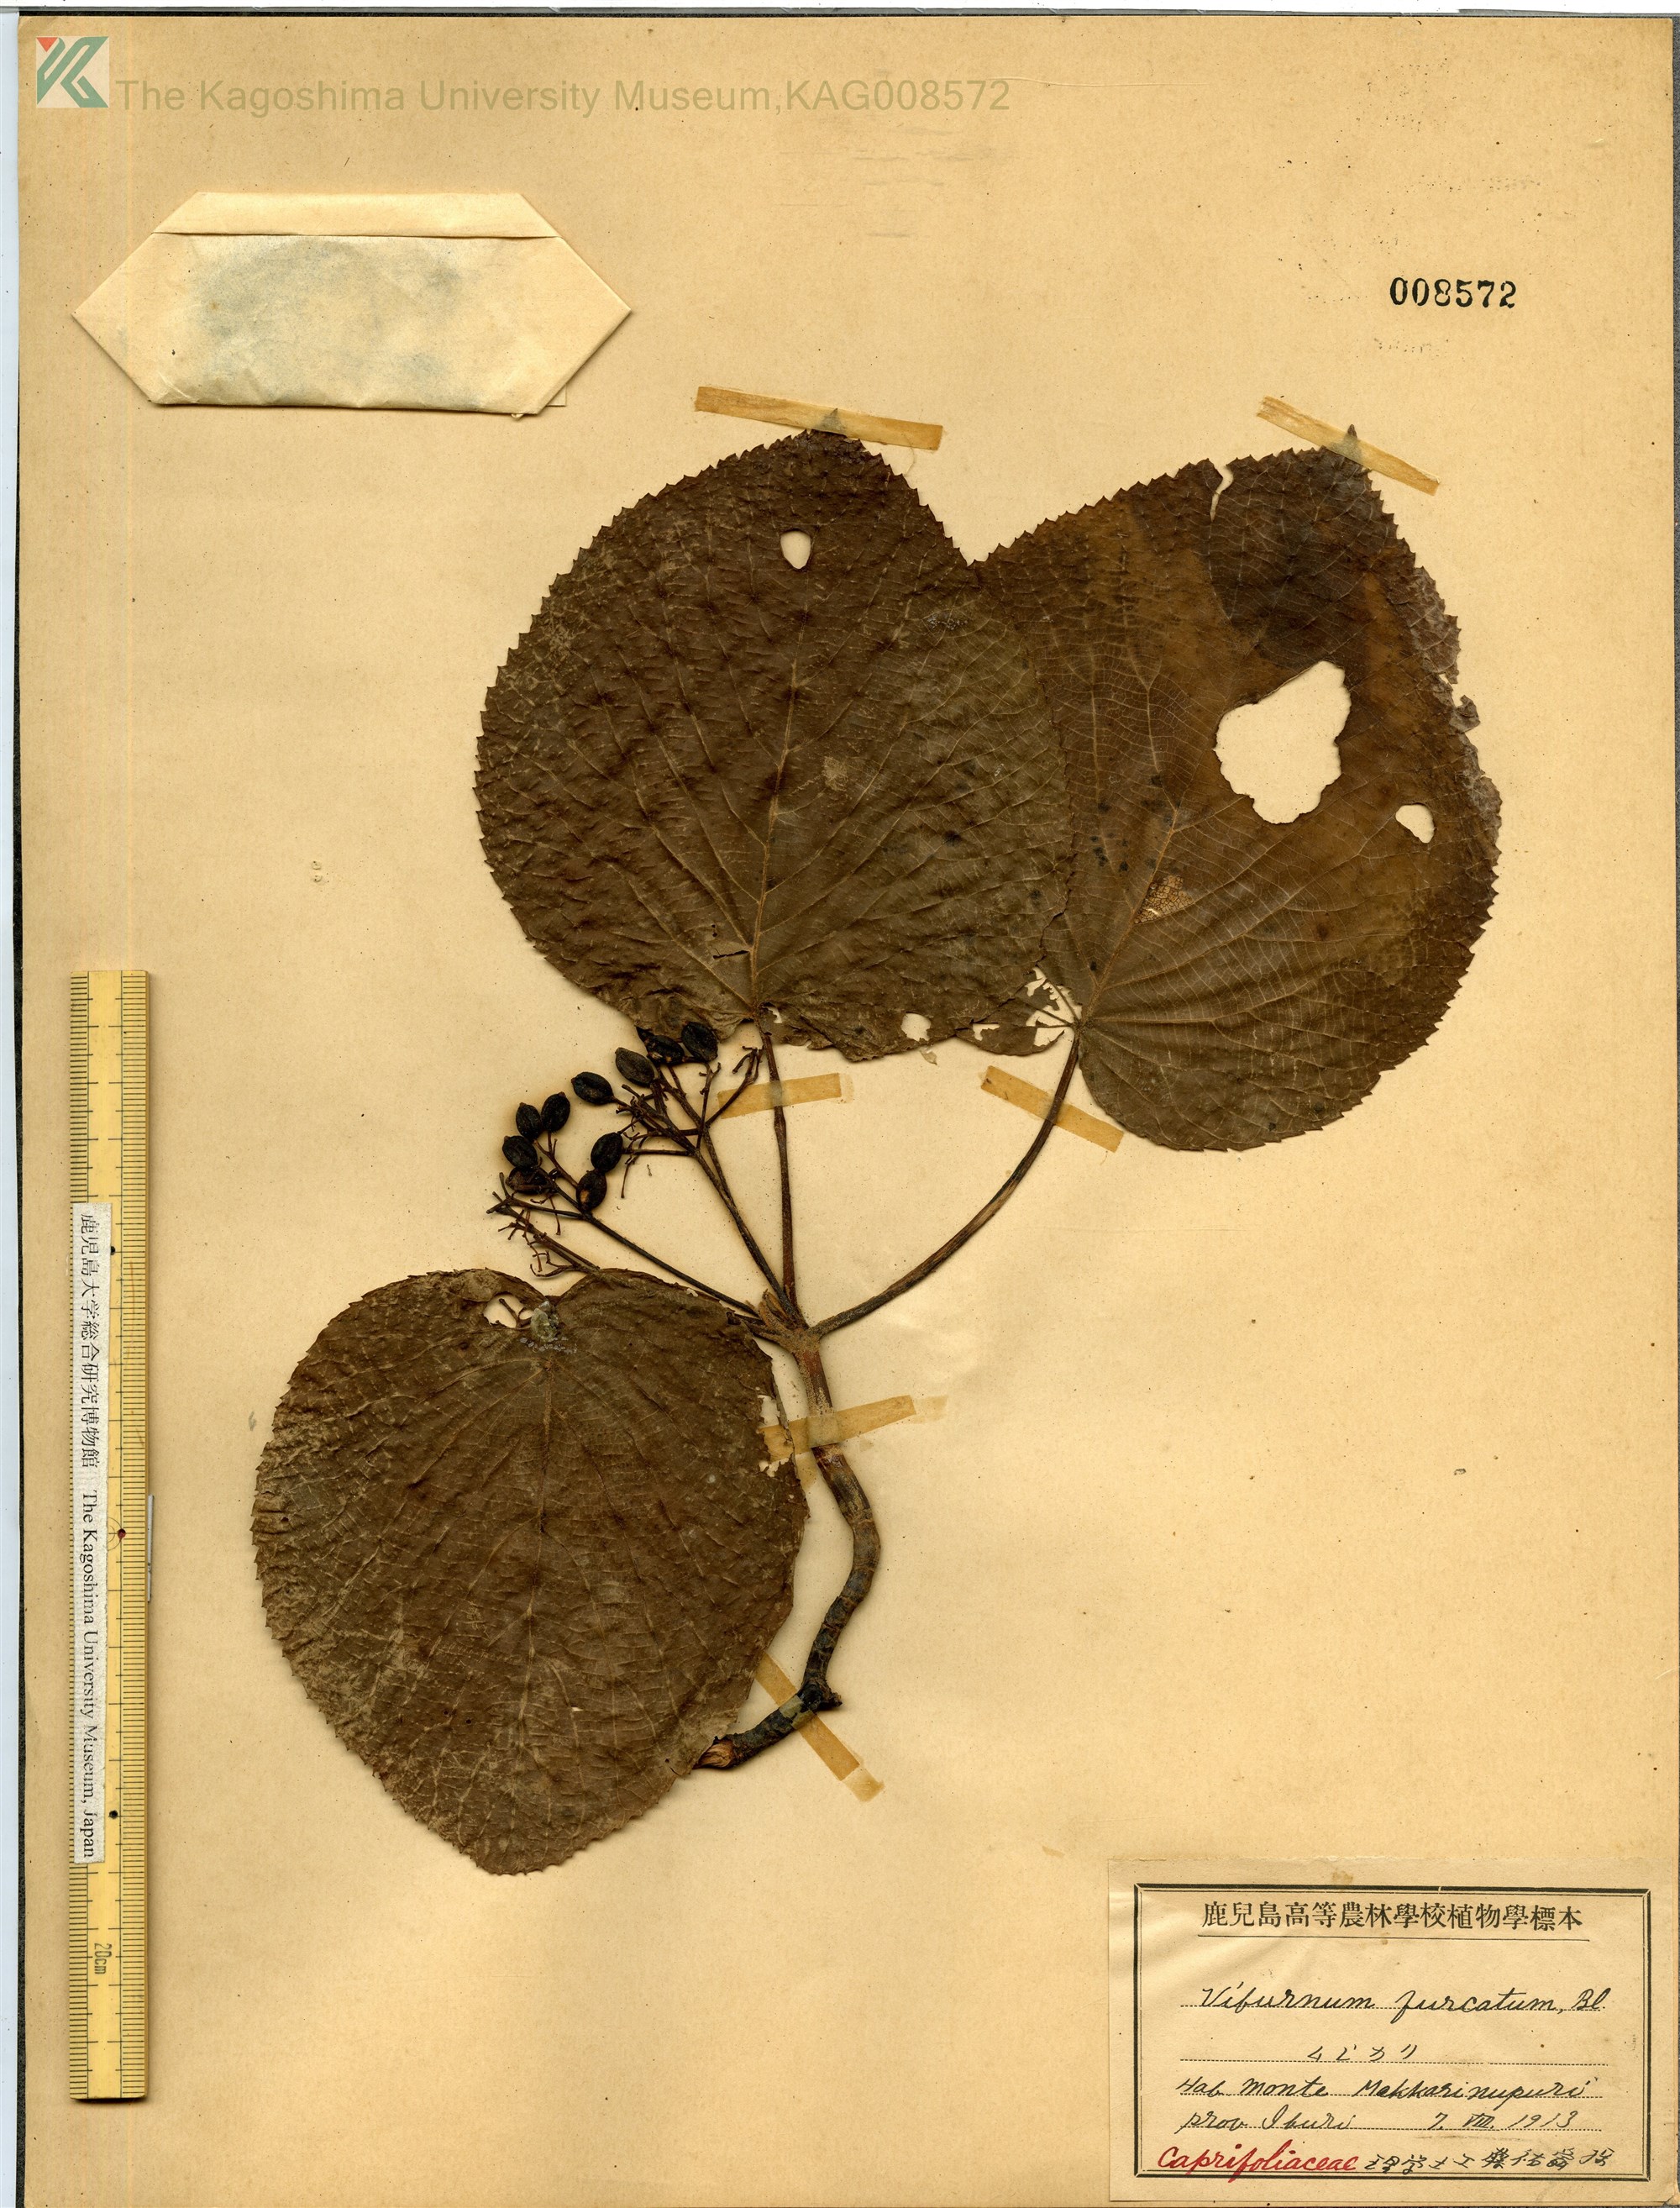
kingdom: Plantae
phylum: Tracheophyta
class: Magnoliopsida
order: Dipsacales
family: Viburnaceae
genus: Viburnum
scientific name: Viburnum furcatum
